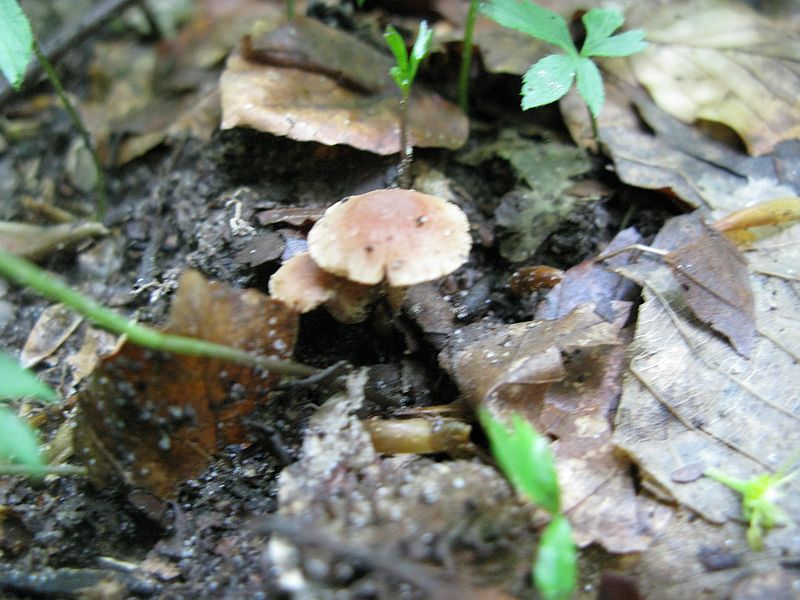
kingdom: Fungi
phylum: Basidiomycota
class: Agaricomycetes
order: Agaricales
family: Tubariaceae
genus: Tubaria
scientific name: Tubaria furfuracea
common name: kliddet fnughat
